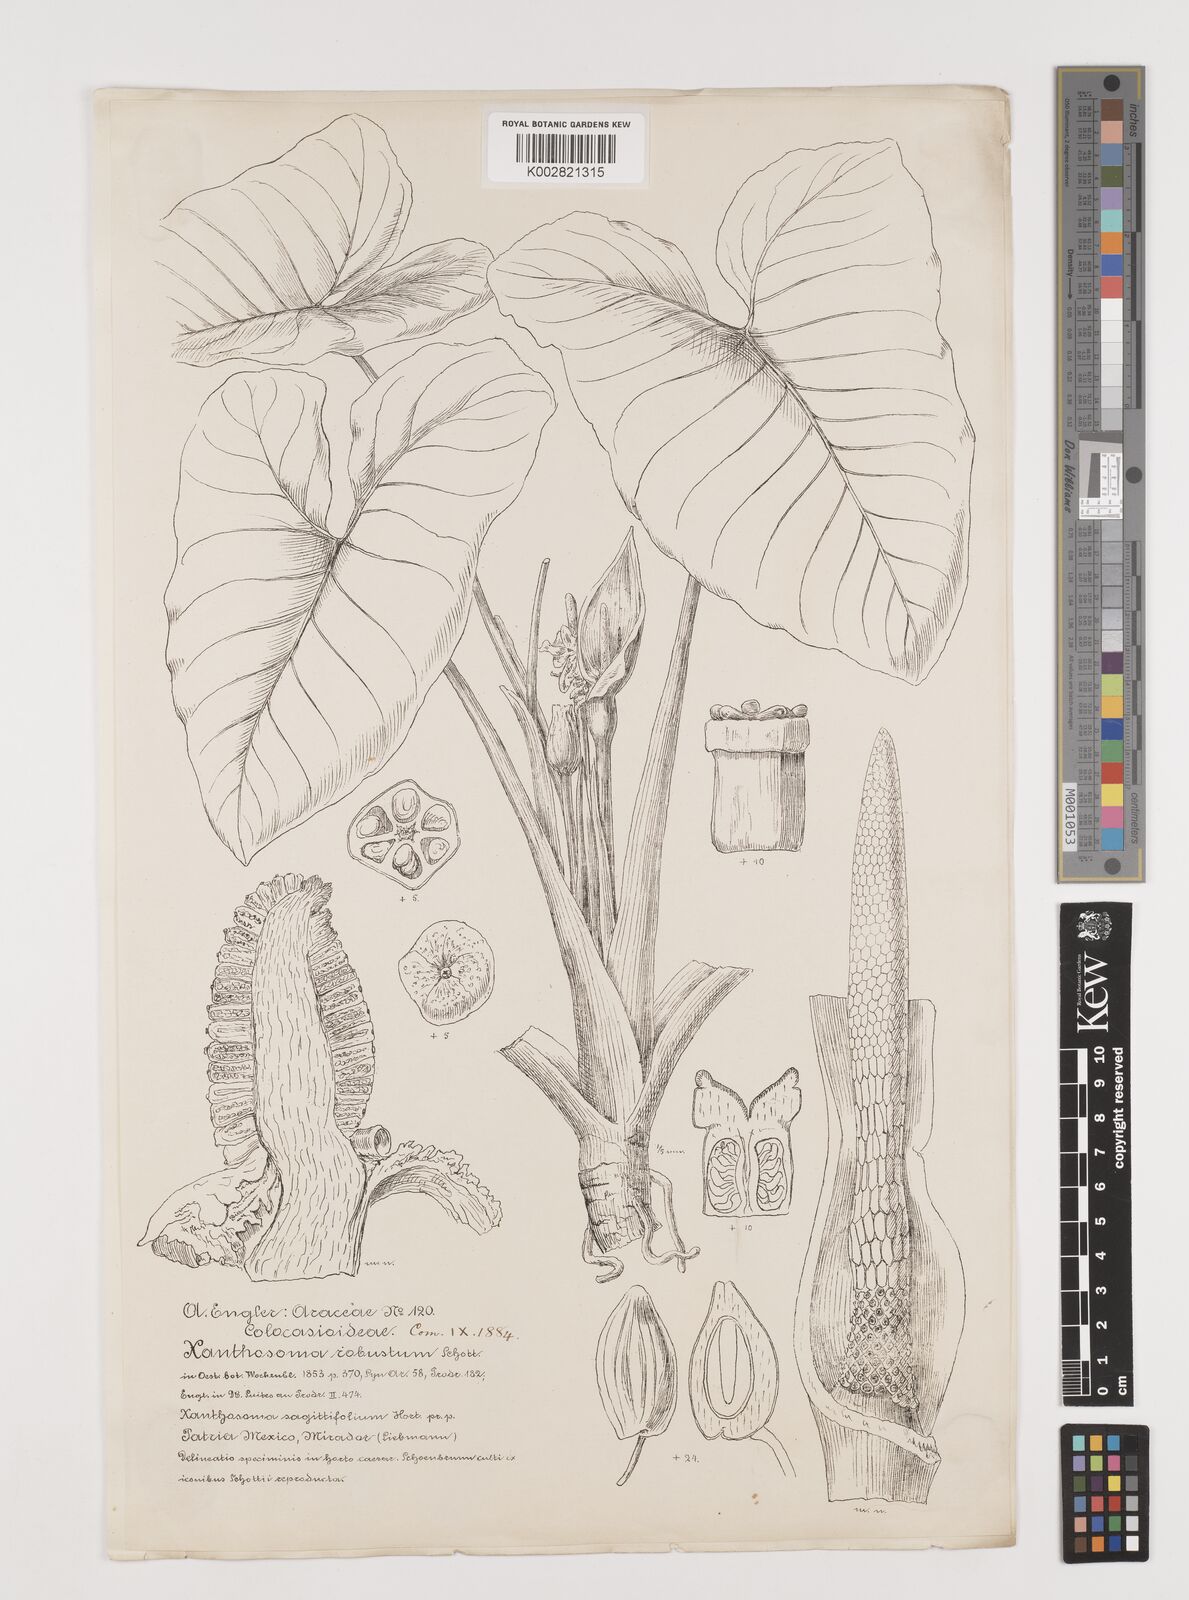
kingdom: Plantae
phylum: Tracheophyta
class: Liliopsida
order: Alismatales
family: Araceae
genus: Xanthosoma
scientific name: Xanthosoma robustum
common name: Capote
